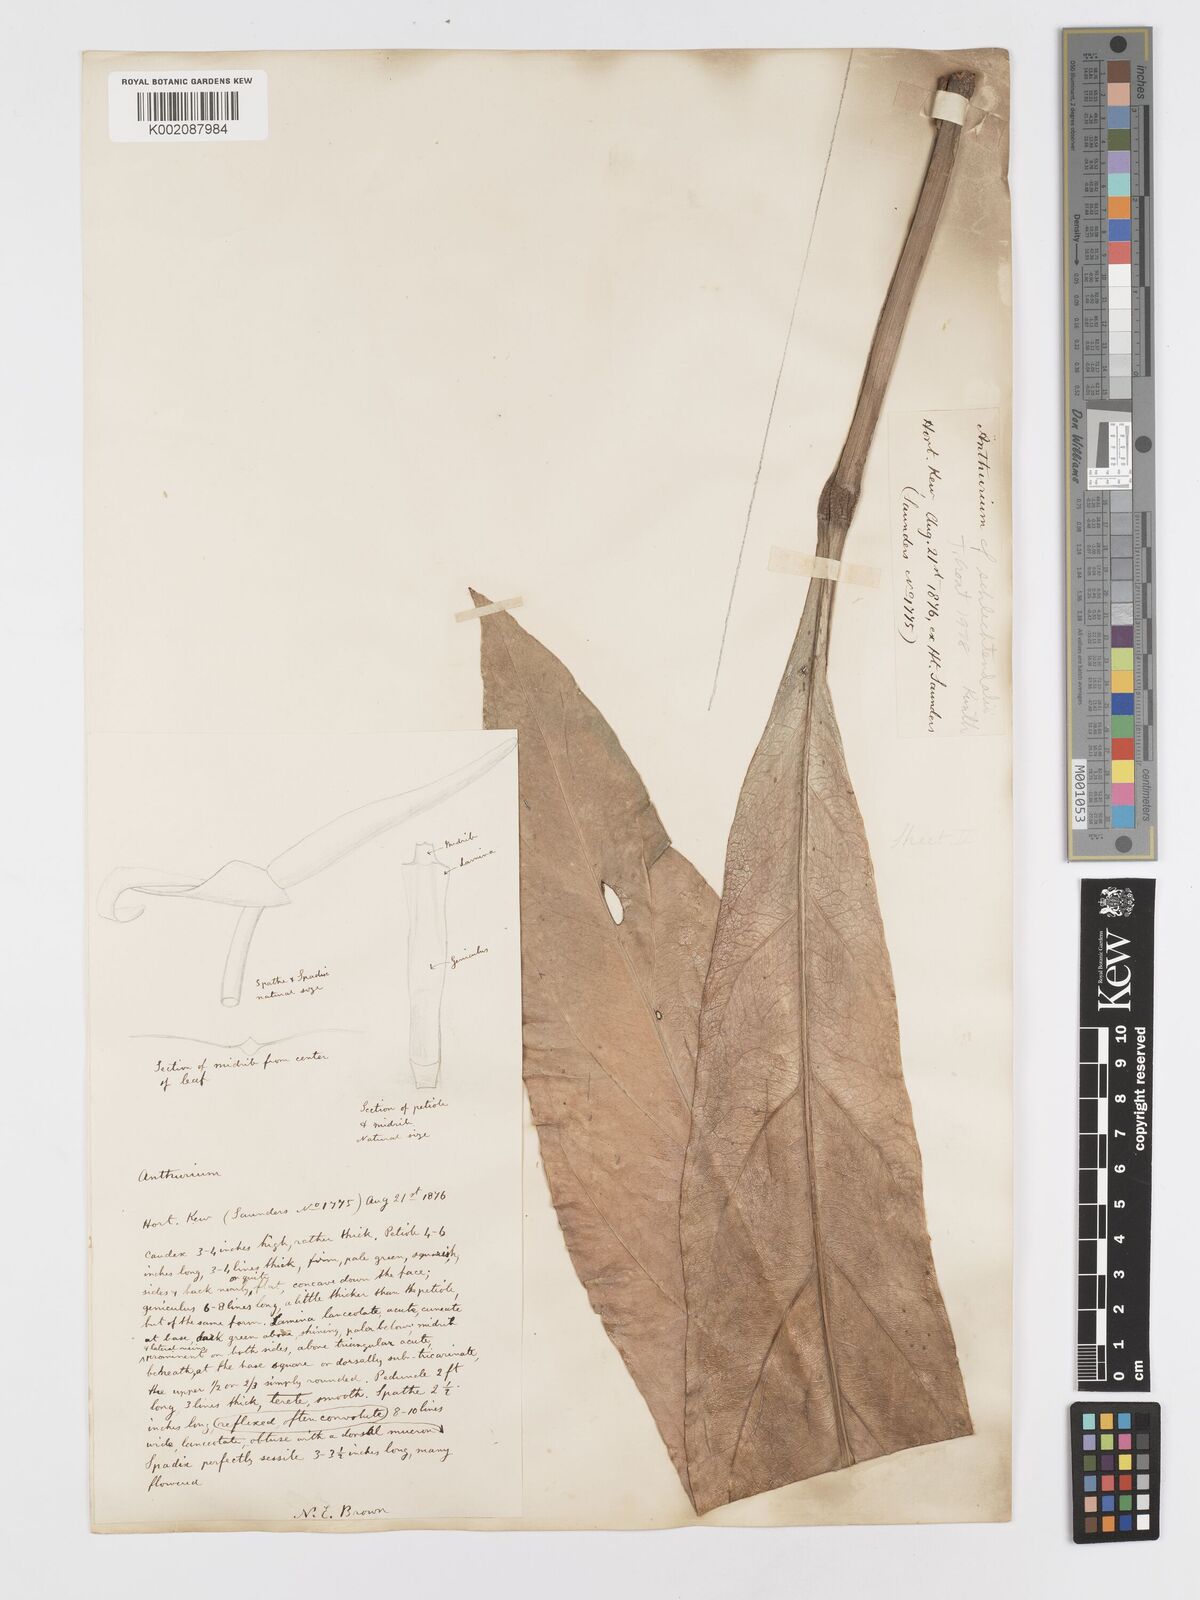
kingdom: Plantae
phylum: Tracheophyta
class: Liliopsida
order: Alismatales
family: Araceae
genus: Anthurium
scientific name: Anthurium schlechtendalii
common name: Laceleaf
